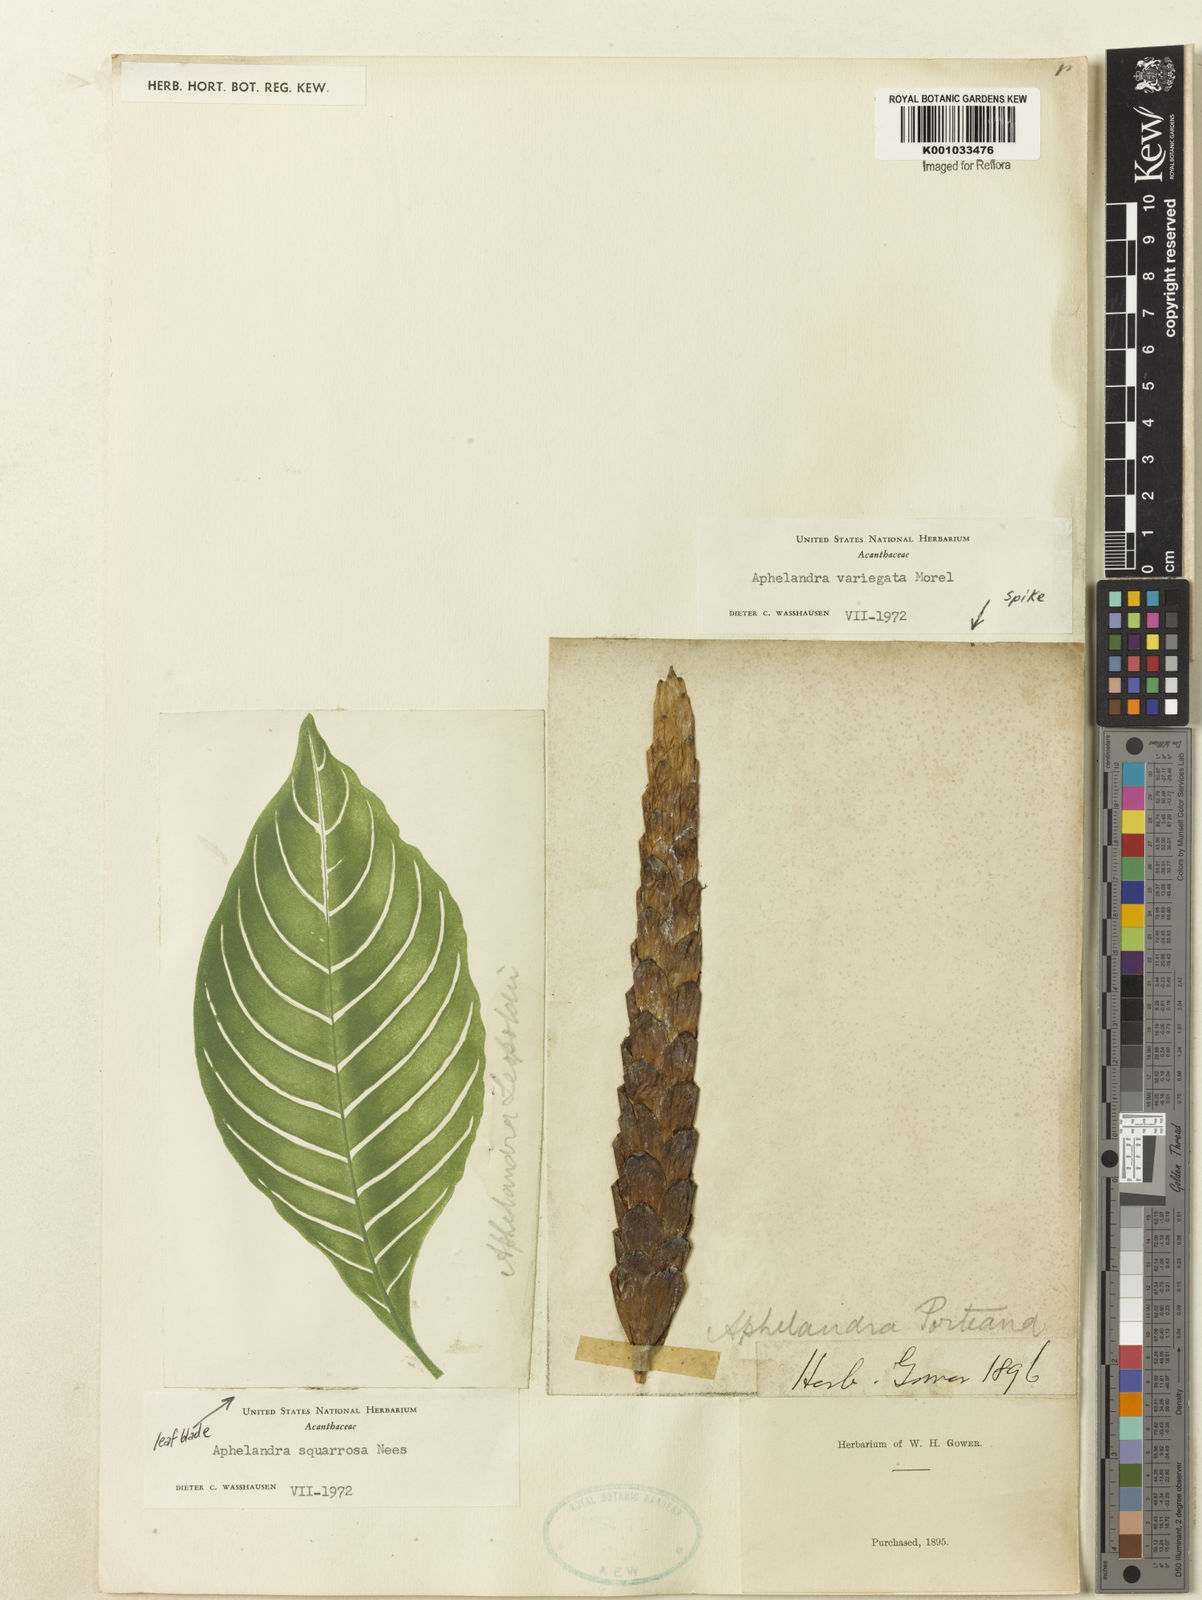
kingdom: Plantae
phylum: Tracheophyta
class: Magnoliopsida
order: Lamiales
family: Acanthaceae
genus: Aphelandra
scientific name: Aphelandra
